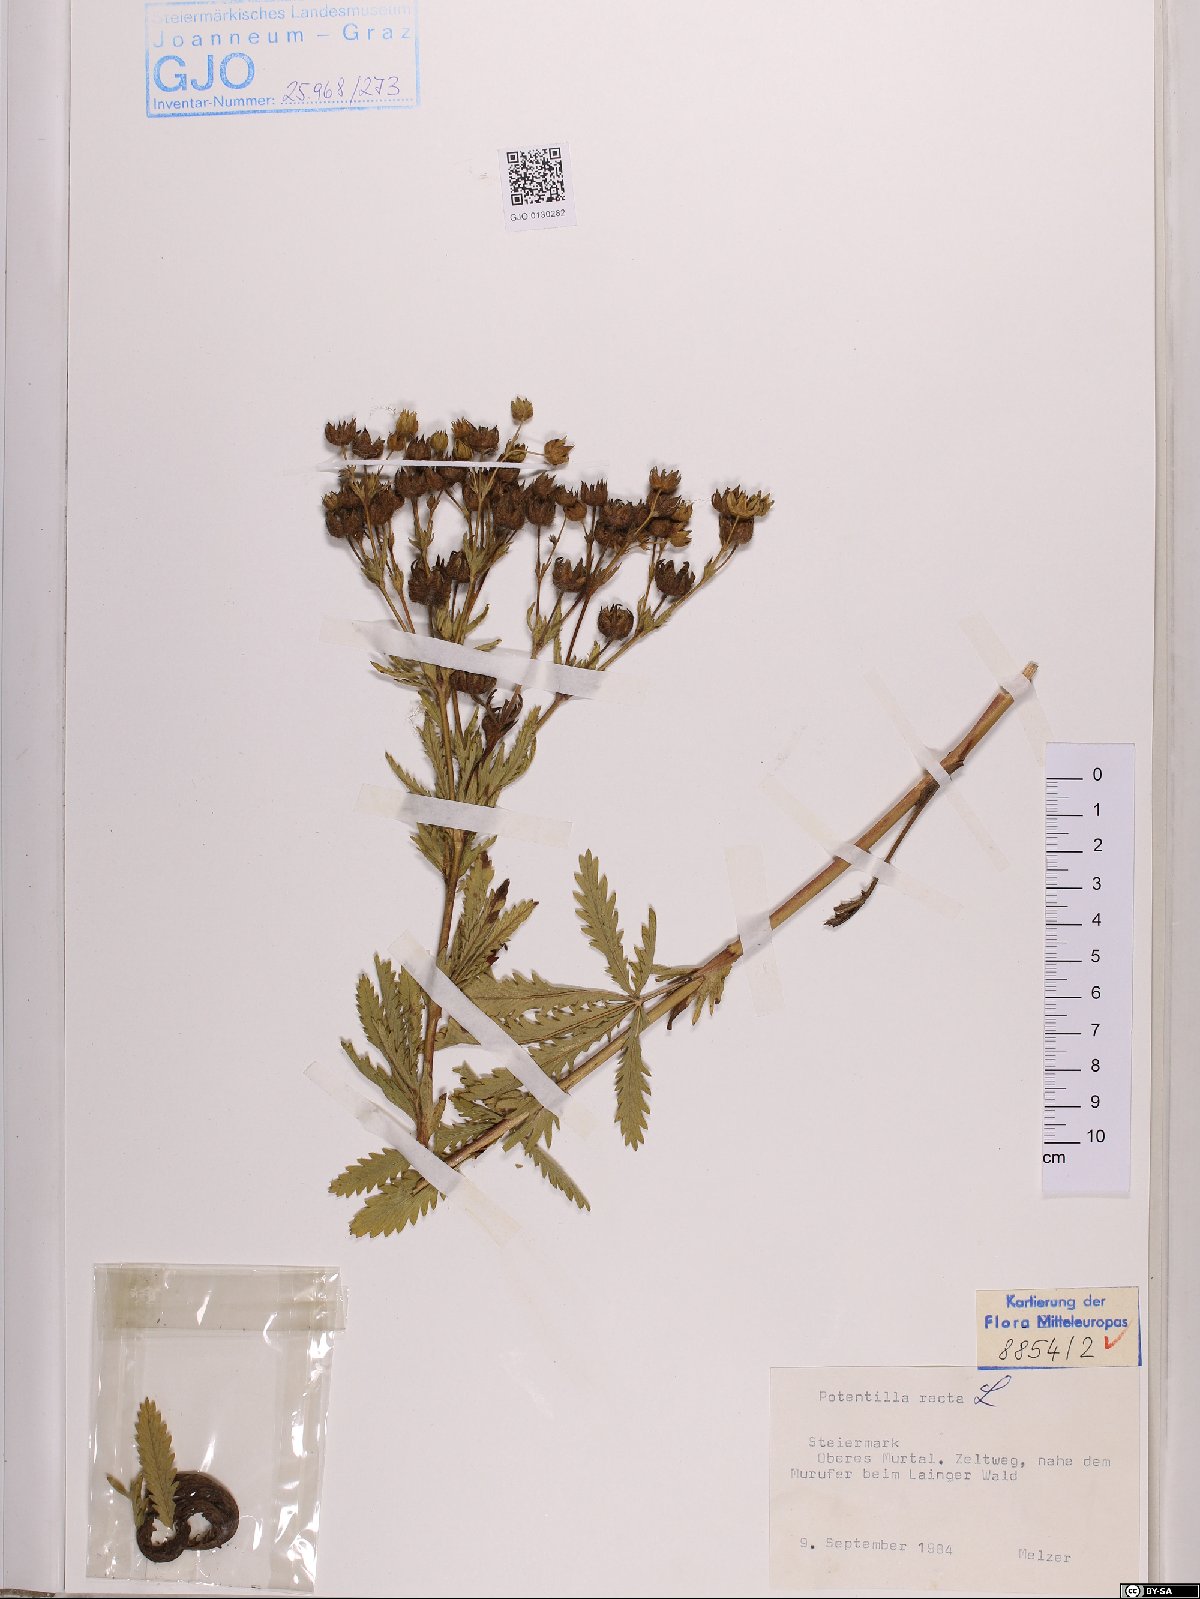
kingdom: Plantae
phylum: Tracheophyta
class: Magnoliopsida
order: Rosales
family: Rosaceae
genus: Potentilla
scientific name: Potentilla recta
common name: Sulphur cinquefoil
